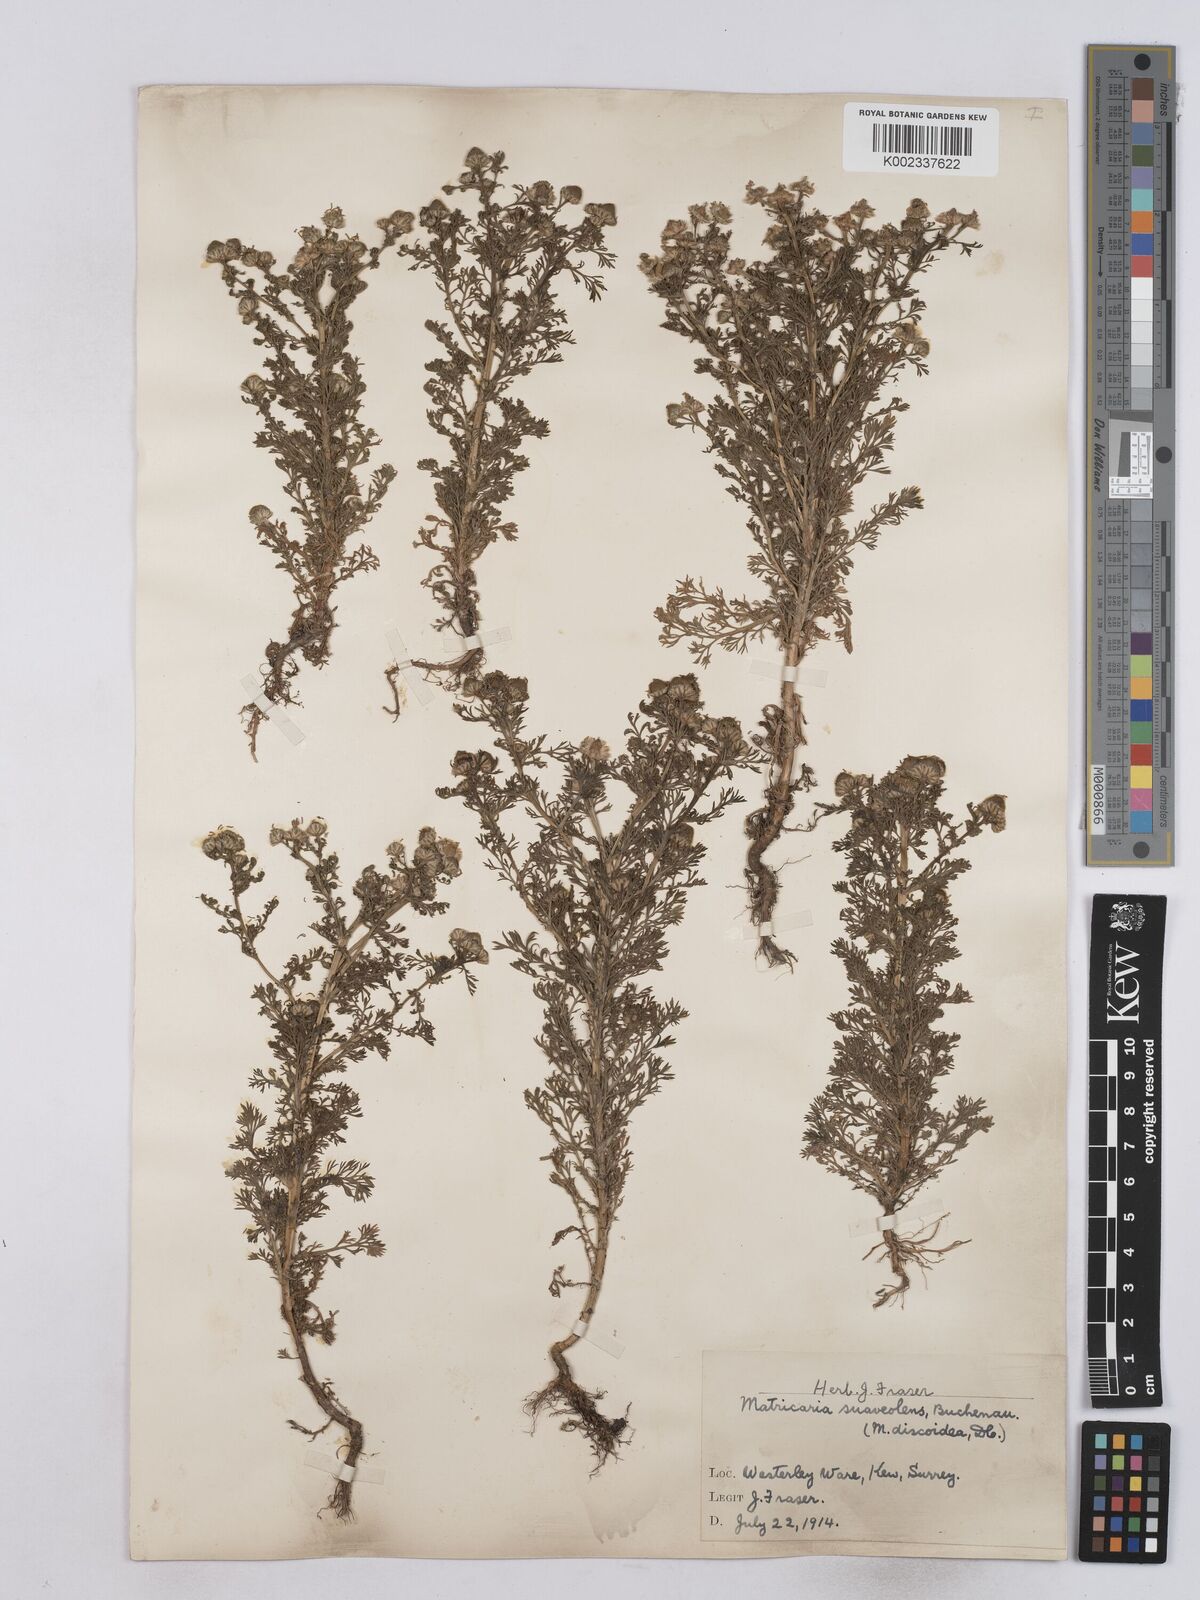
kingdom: Plantae
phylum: Tracheophyta
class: Magnoliopsida
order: Asterales
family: Asteraceae
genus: Matricaria
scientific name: Matricaria discoidea
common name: Disc mayweed
